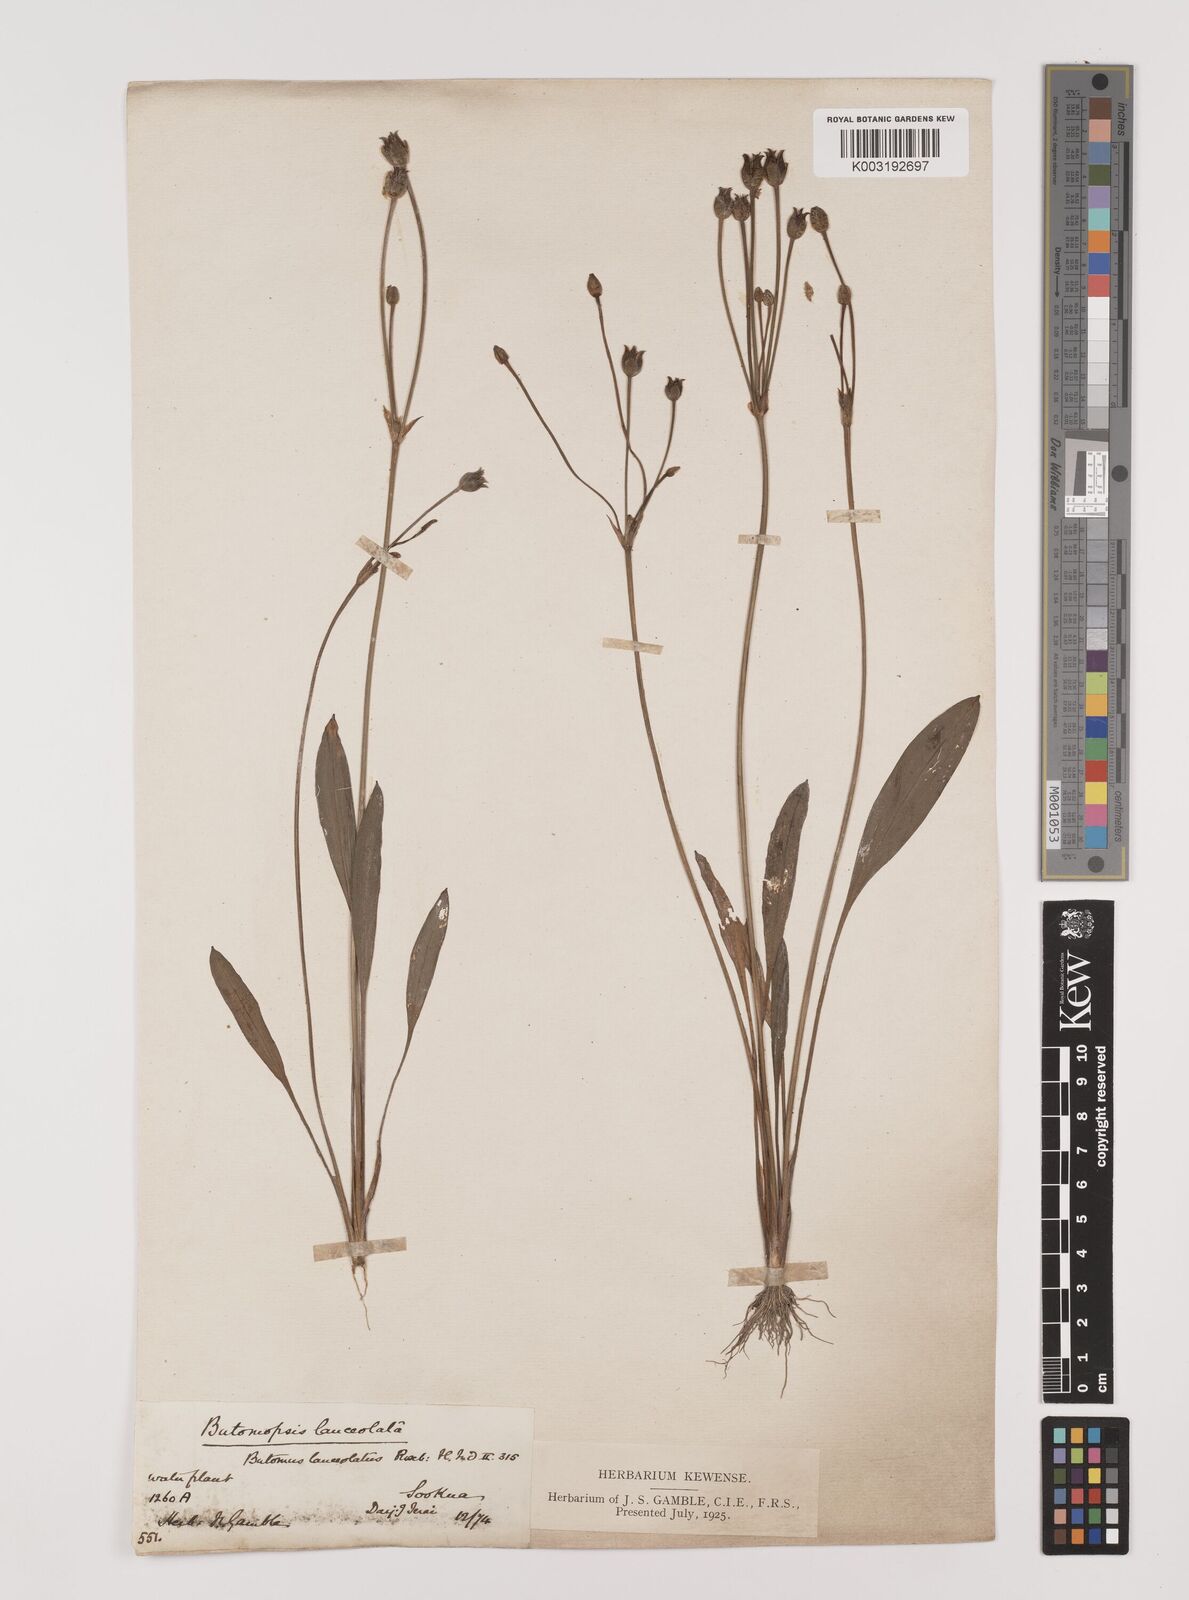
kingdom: Plantae
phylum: Tracheophyta
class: Liliopsida
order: Alismatales
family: Alismataceae
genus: Butomopsis
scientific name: Butomopsis latifolia
